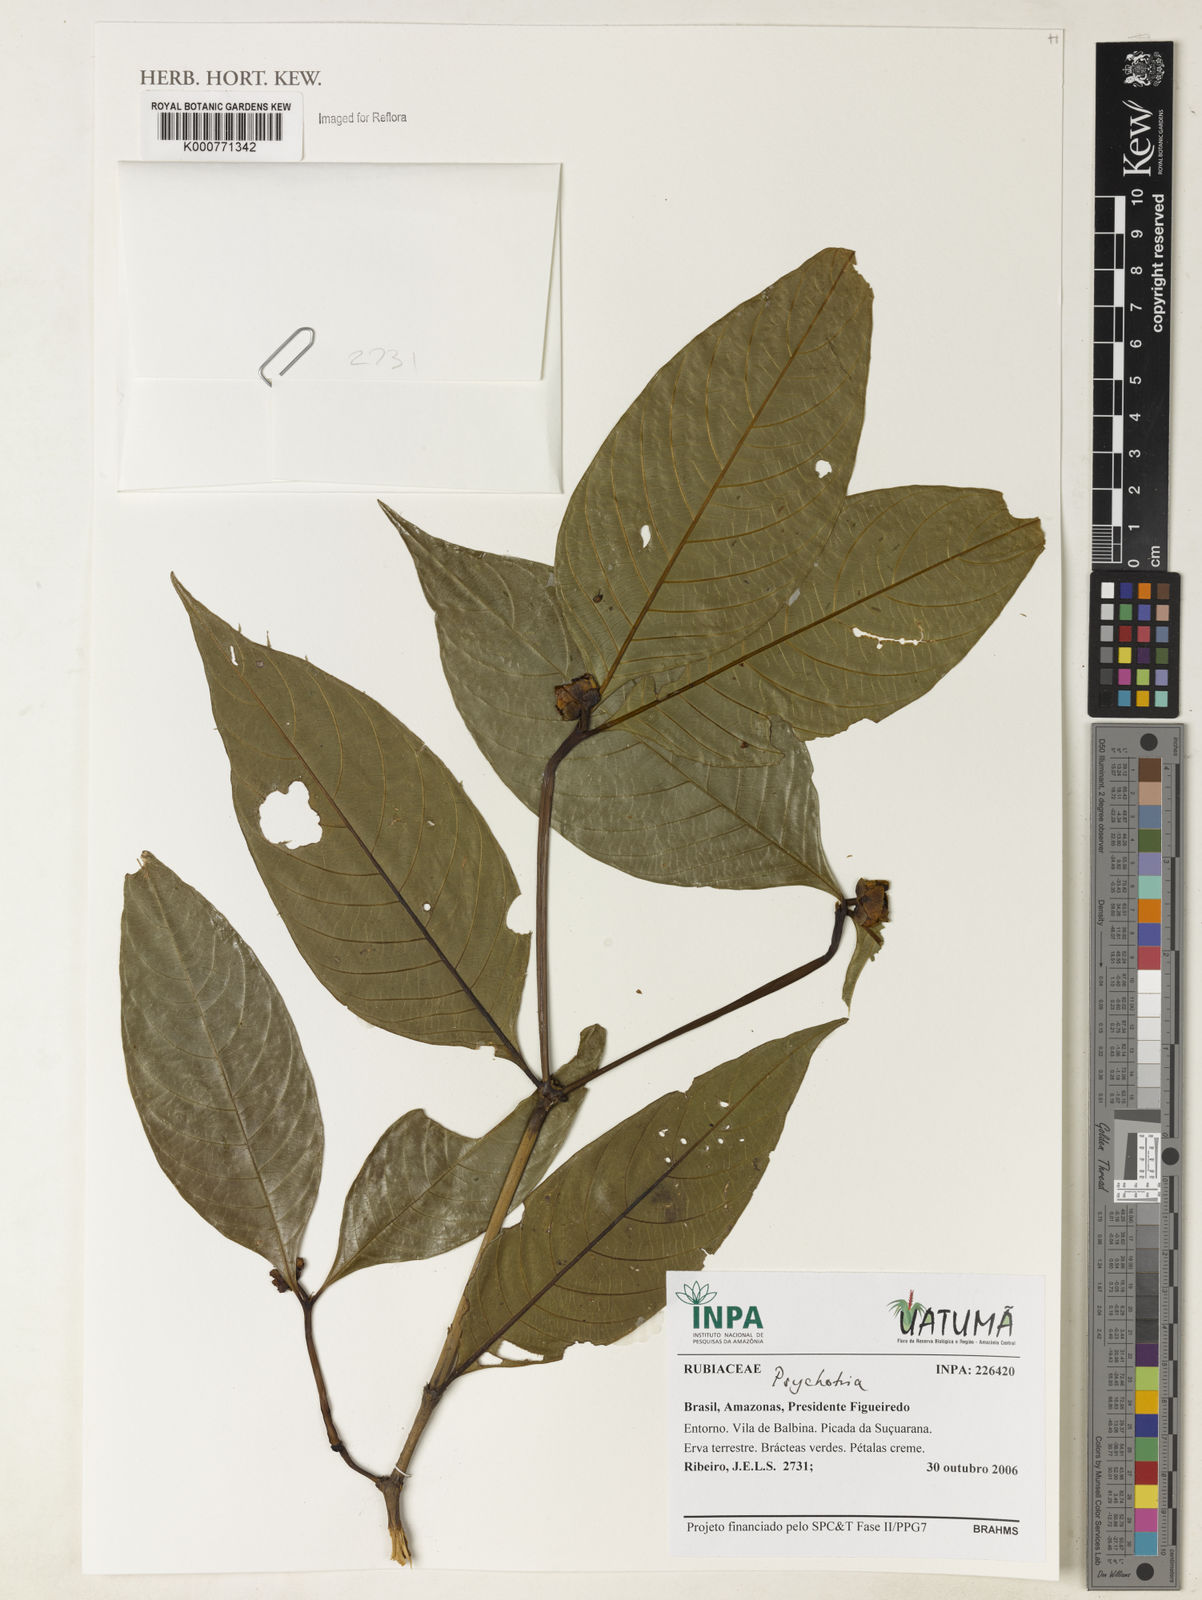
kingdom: Plantae
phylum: Tracheophyta
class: Magnoliopsida
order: Gentianales
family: Rubiaceae
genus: Psychotria
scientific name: Psychotria
